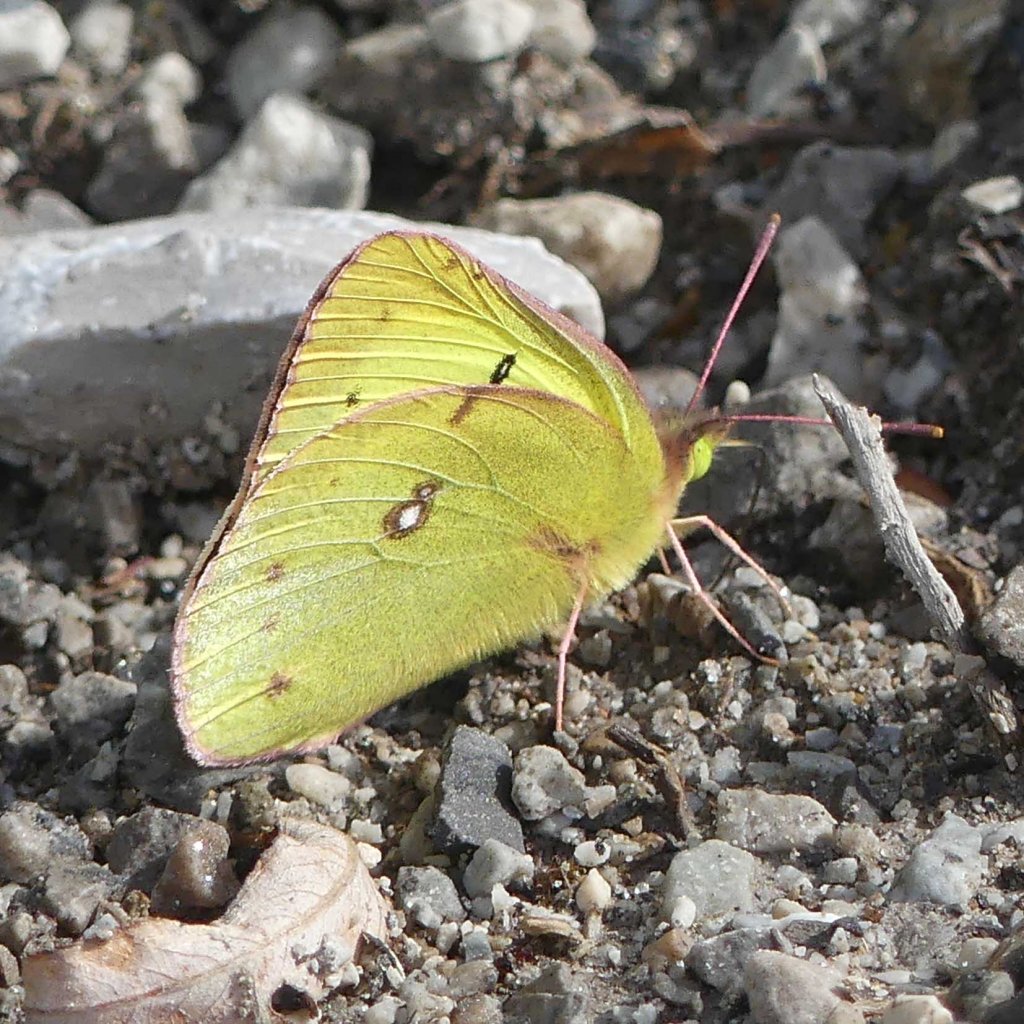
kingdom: Animalia
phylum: Arthropoda
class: Insecta
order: Lepidoptera
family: Pieridae
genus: Colias
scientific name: Colias philodice
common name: Clouded Sulphur
